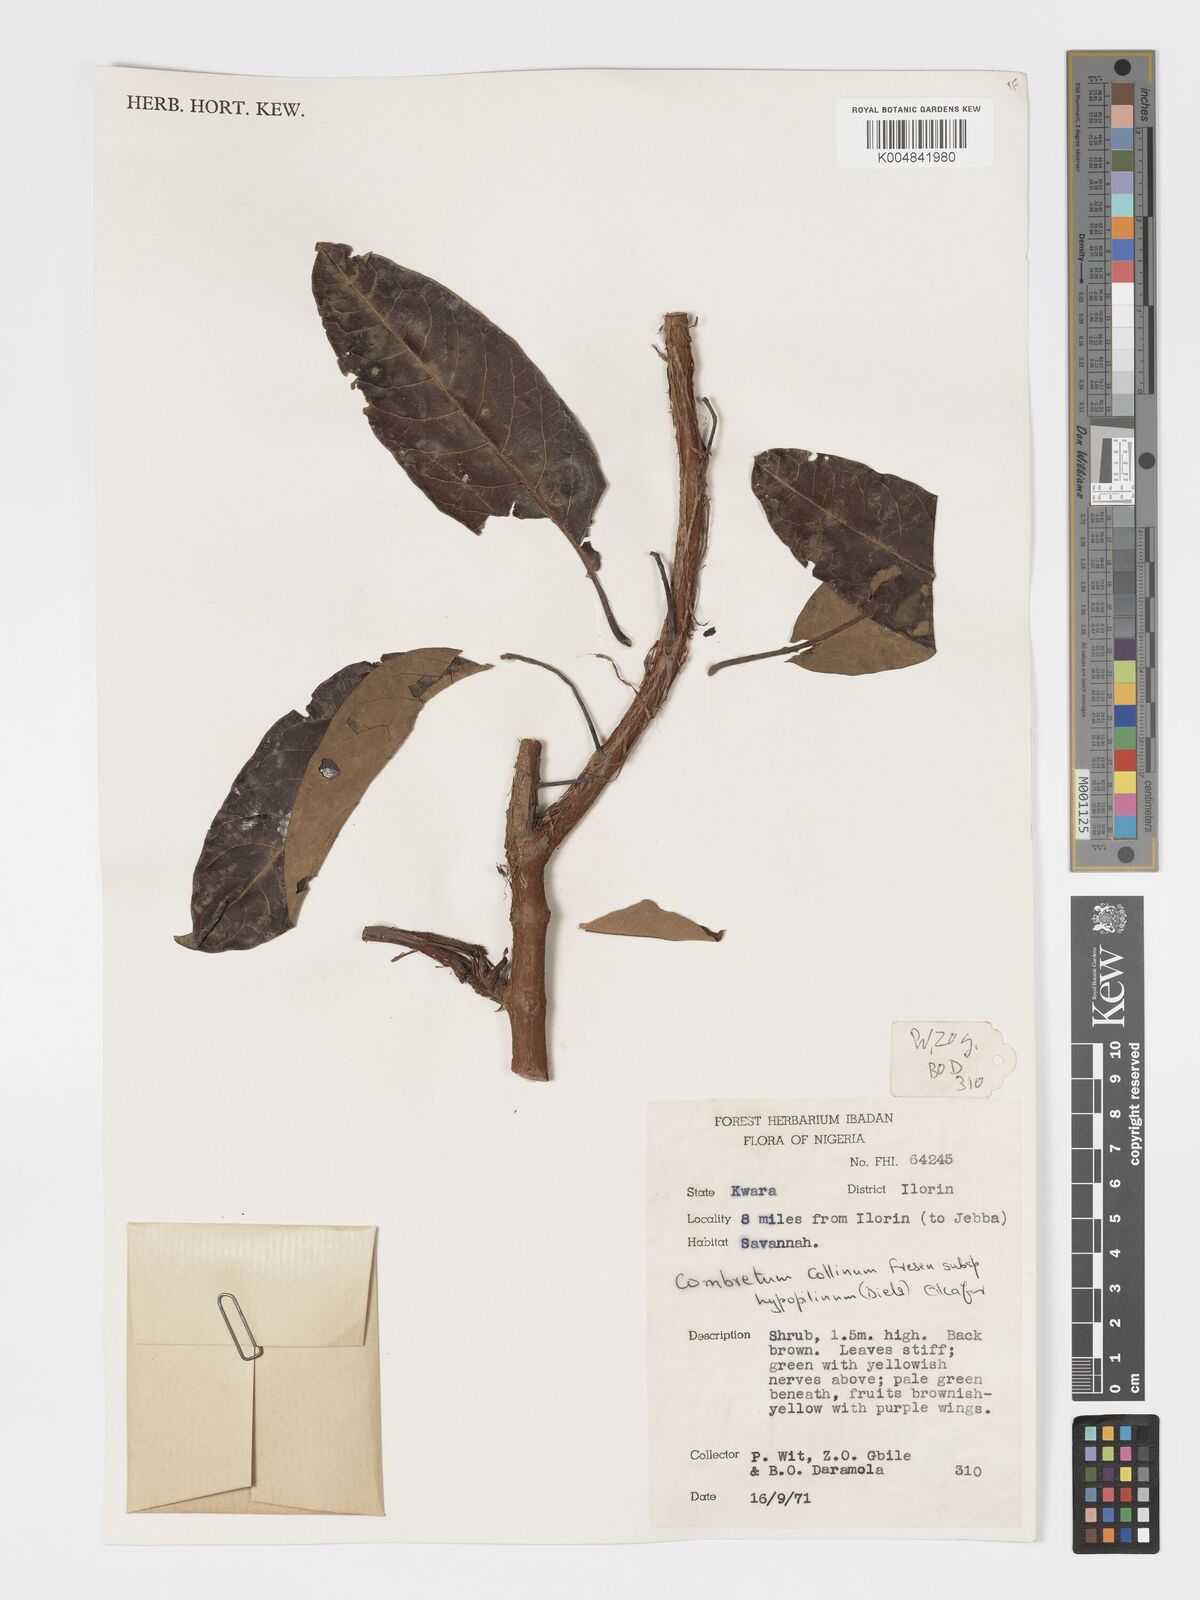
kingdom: Plantae
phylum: Tracheophyta
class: Magnoliopsida
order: Myrtales
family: Combretaceae
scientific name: Combretaceae
